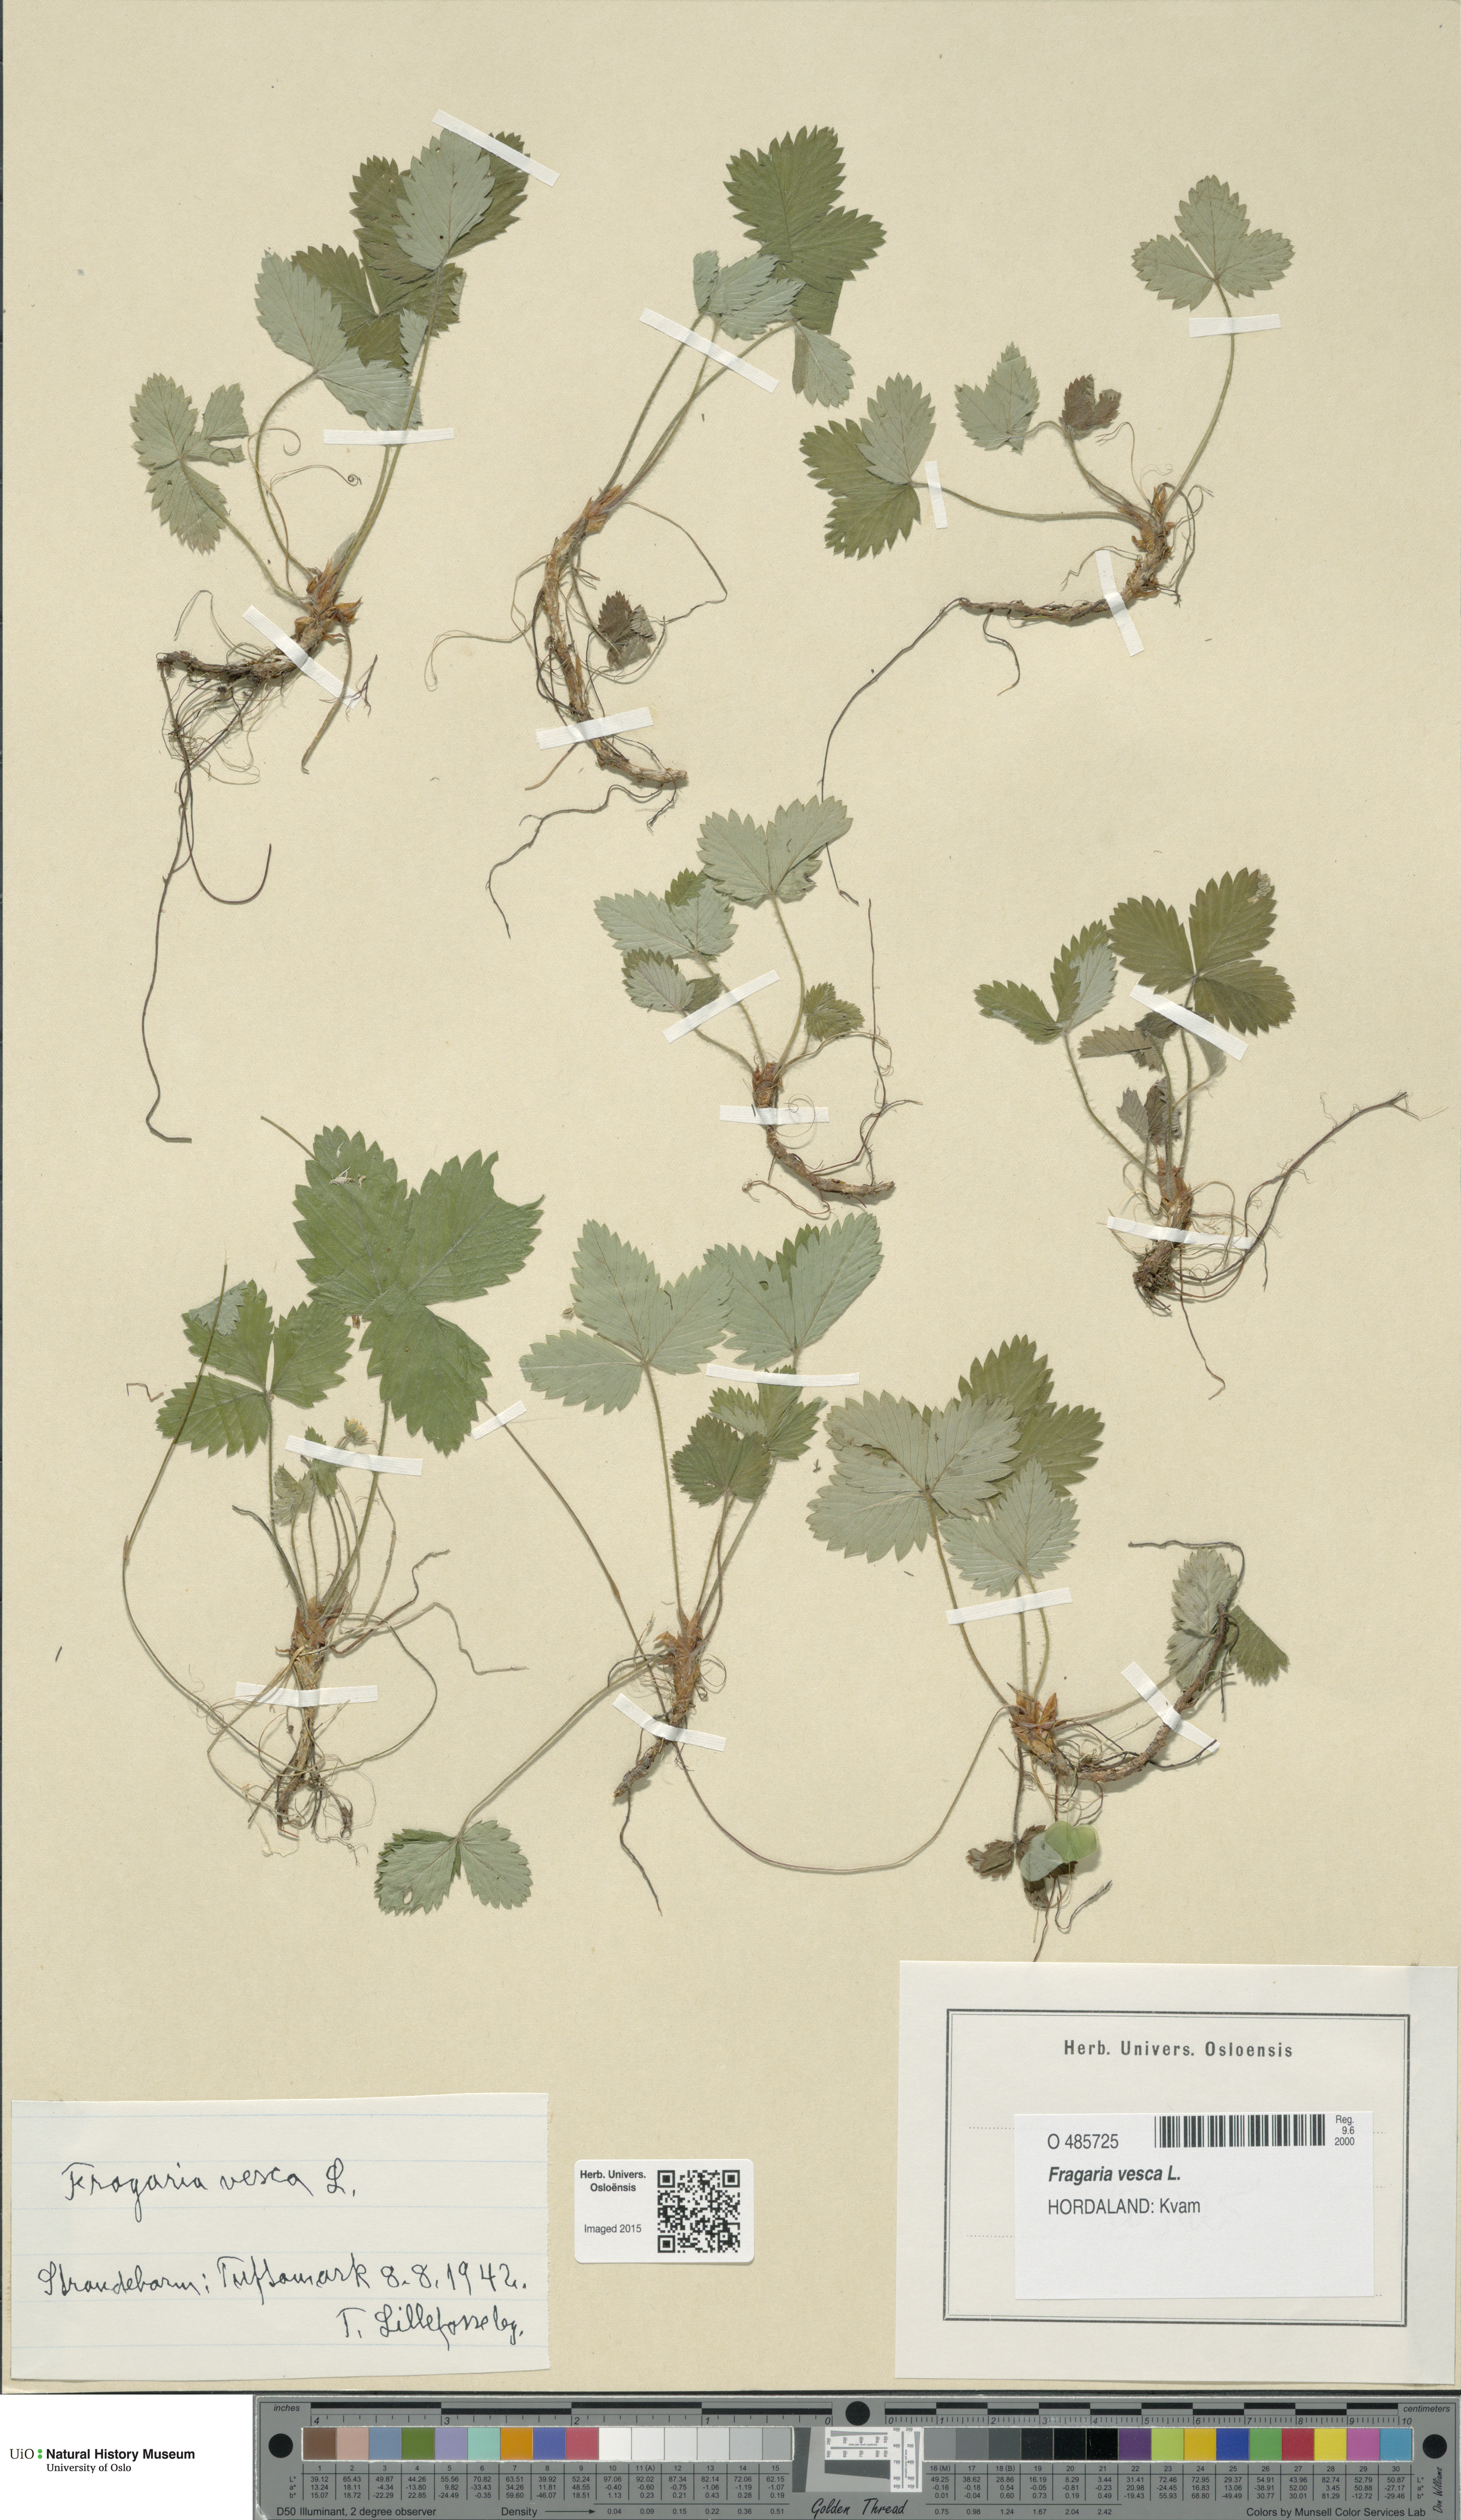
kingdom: Plantae
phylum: Tracheophyta
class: Magnoliopsida
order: Rosales
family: Rosaceae
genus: Fragaria
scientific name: Fragaria vesca
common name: Wild strawberry
